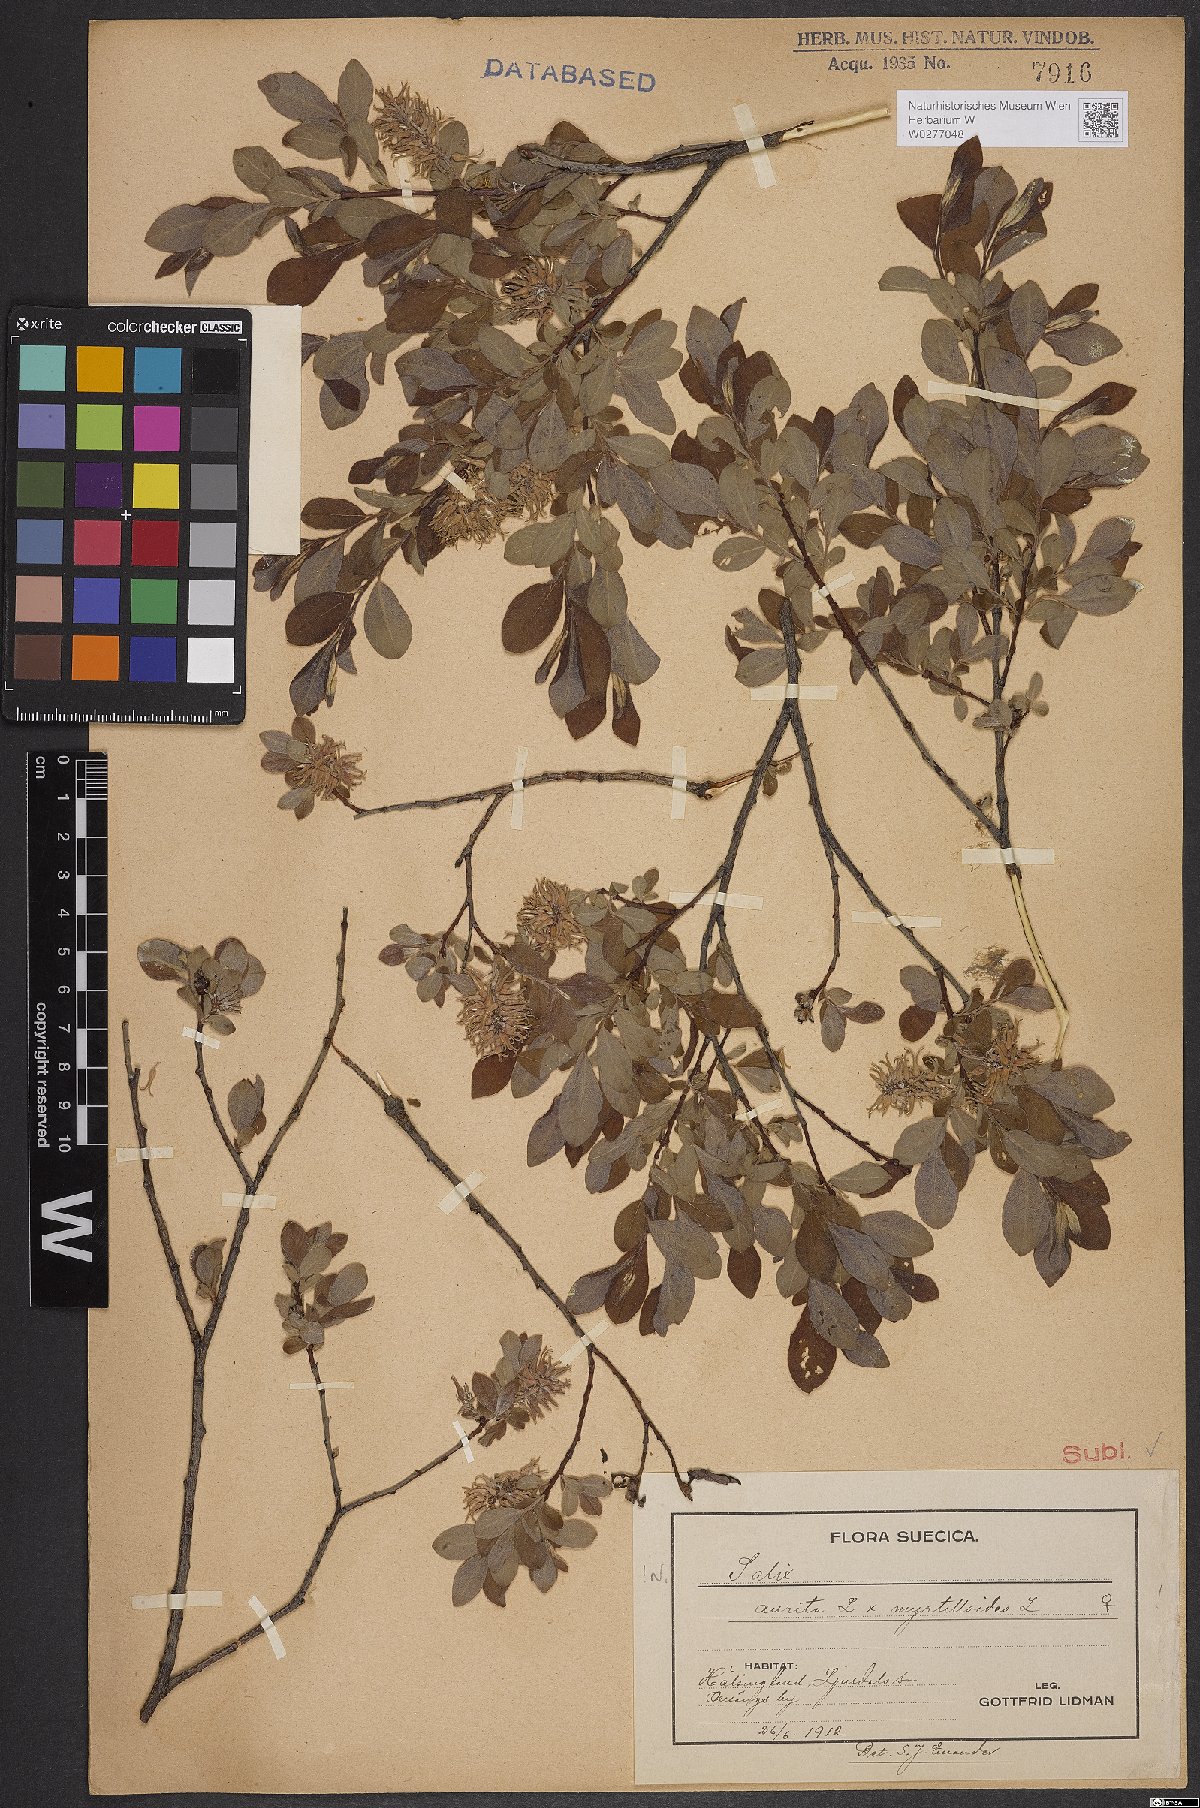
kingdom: Plantae
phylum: Tracheophyta
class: Magnoliopsida
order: Malpighiales
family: Salicaceae
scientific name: Salicaceae
